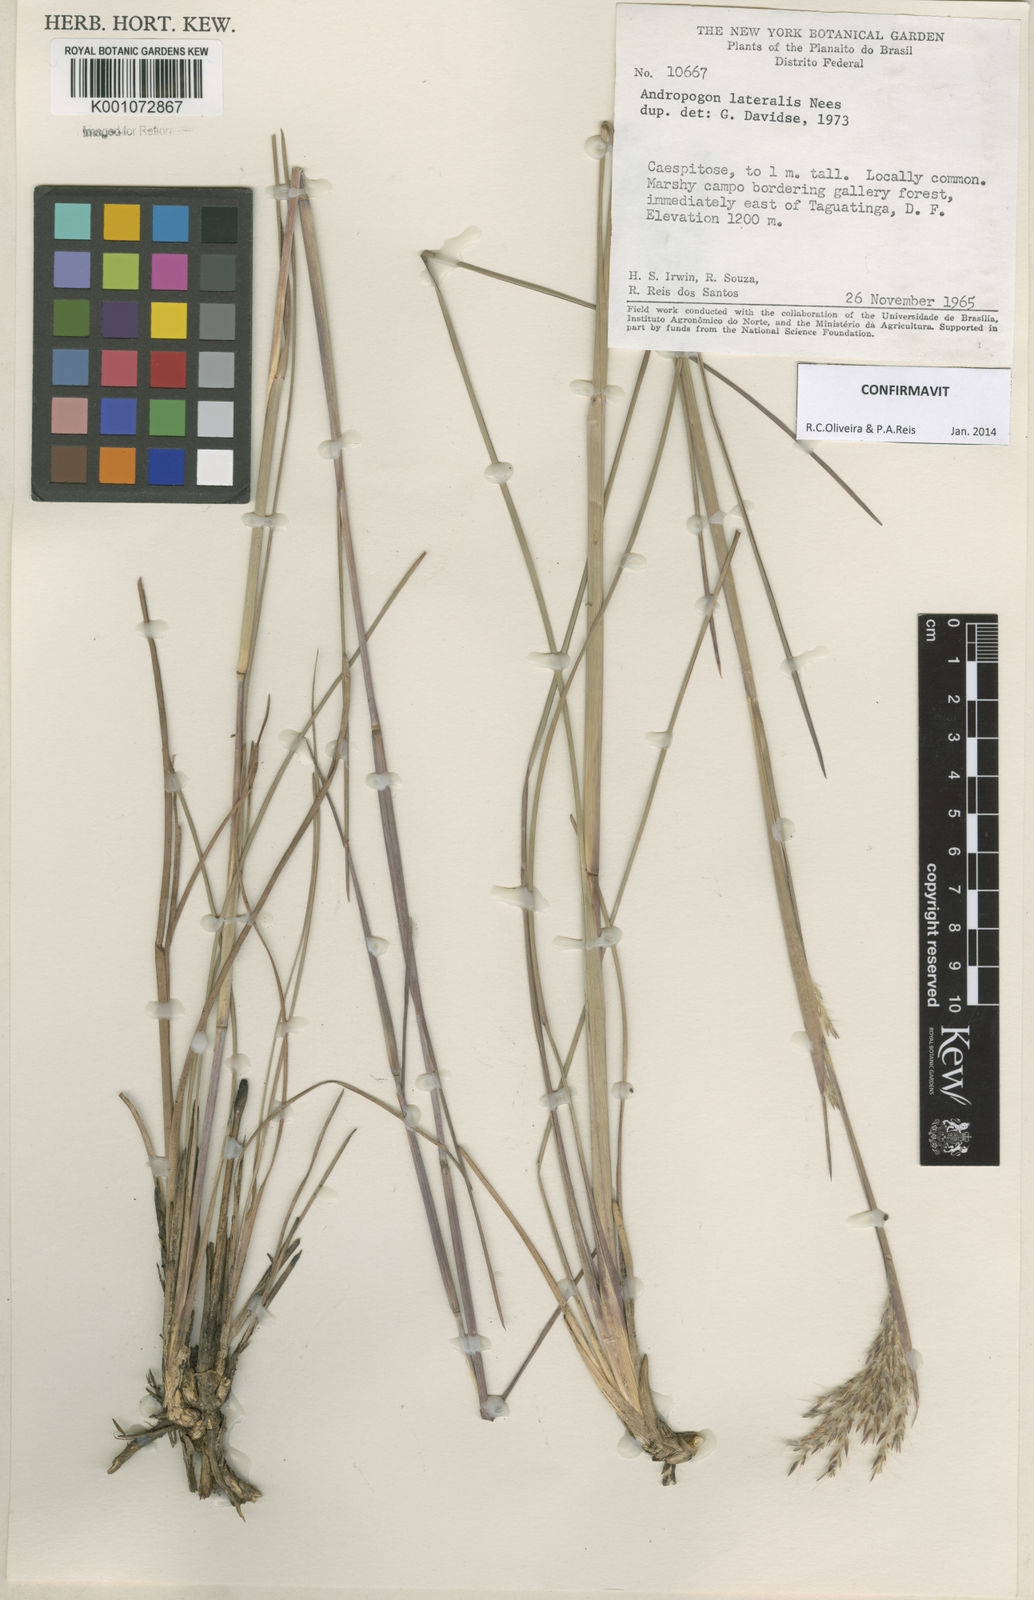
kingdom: Plantae
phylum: Tracheophyta
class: Liliopsida
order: Poales
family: Poaceae
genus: Andropogon
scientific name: Andropogon lateralis
